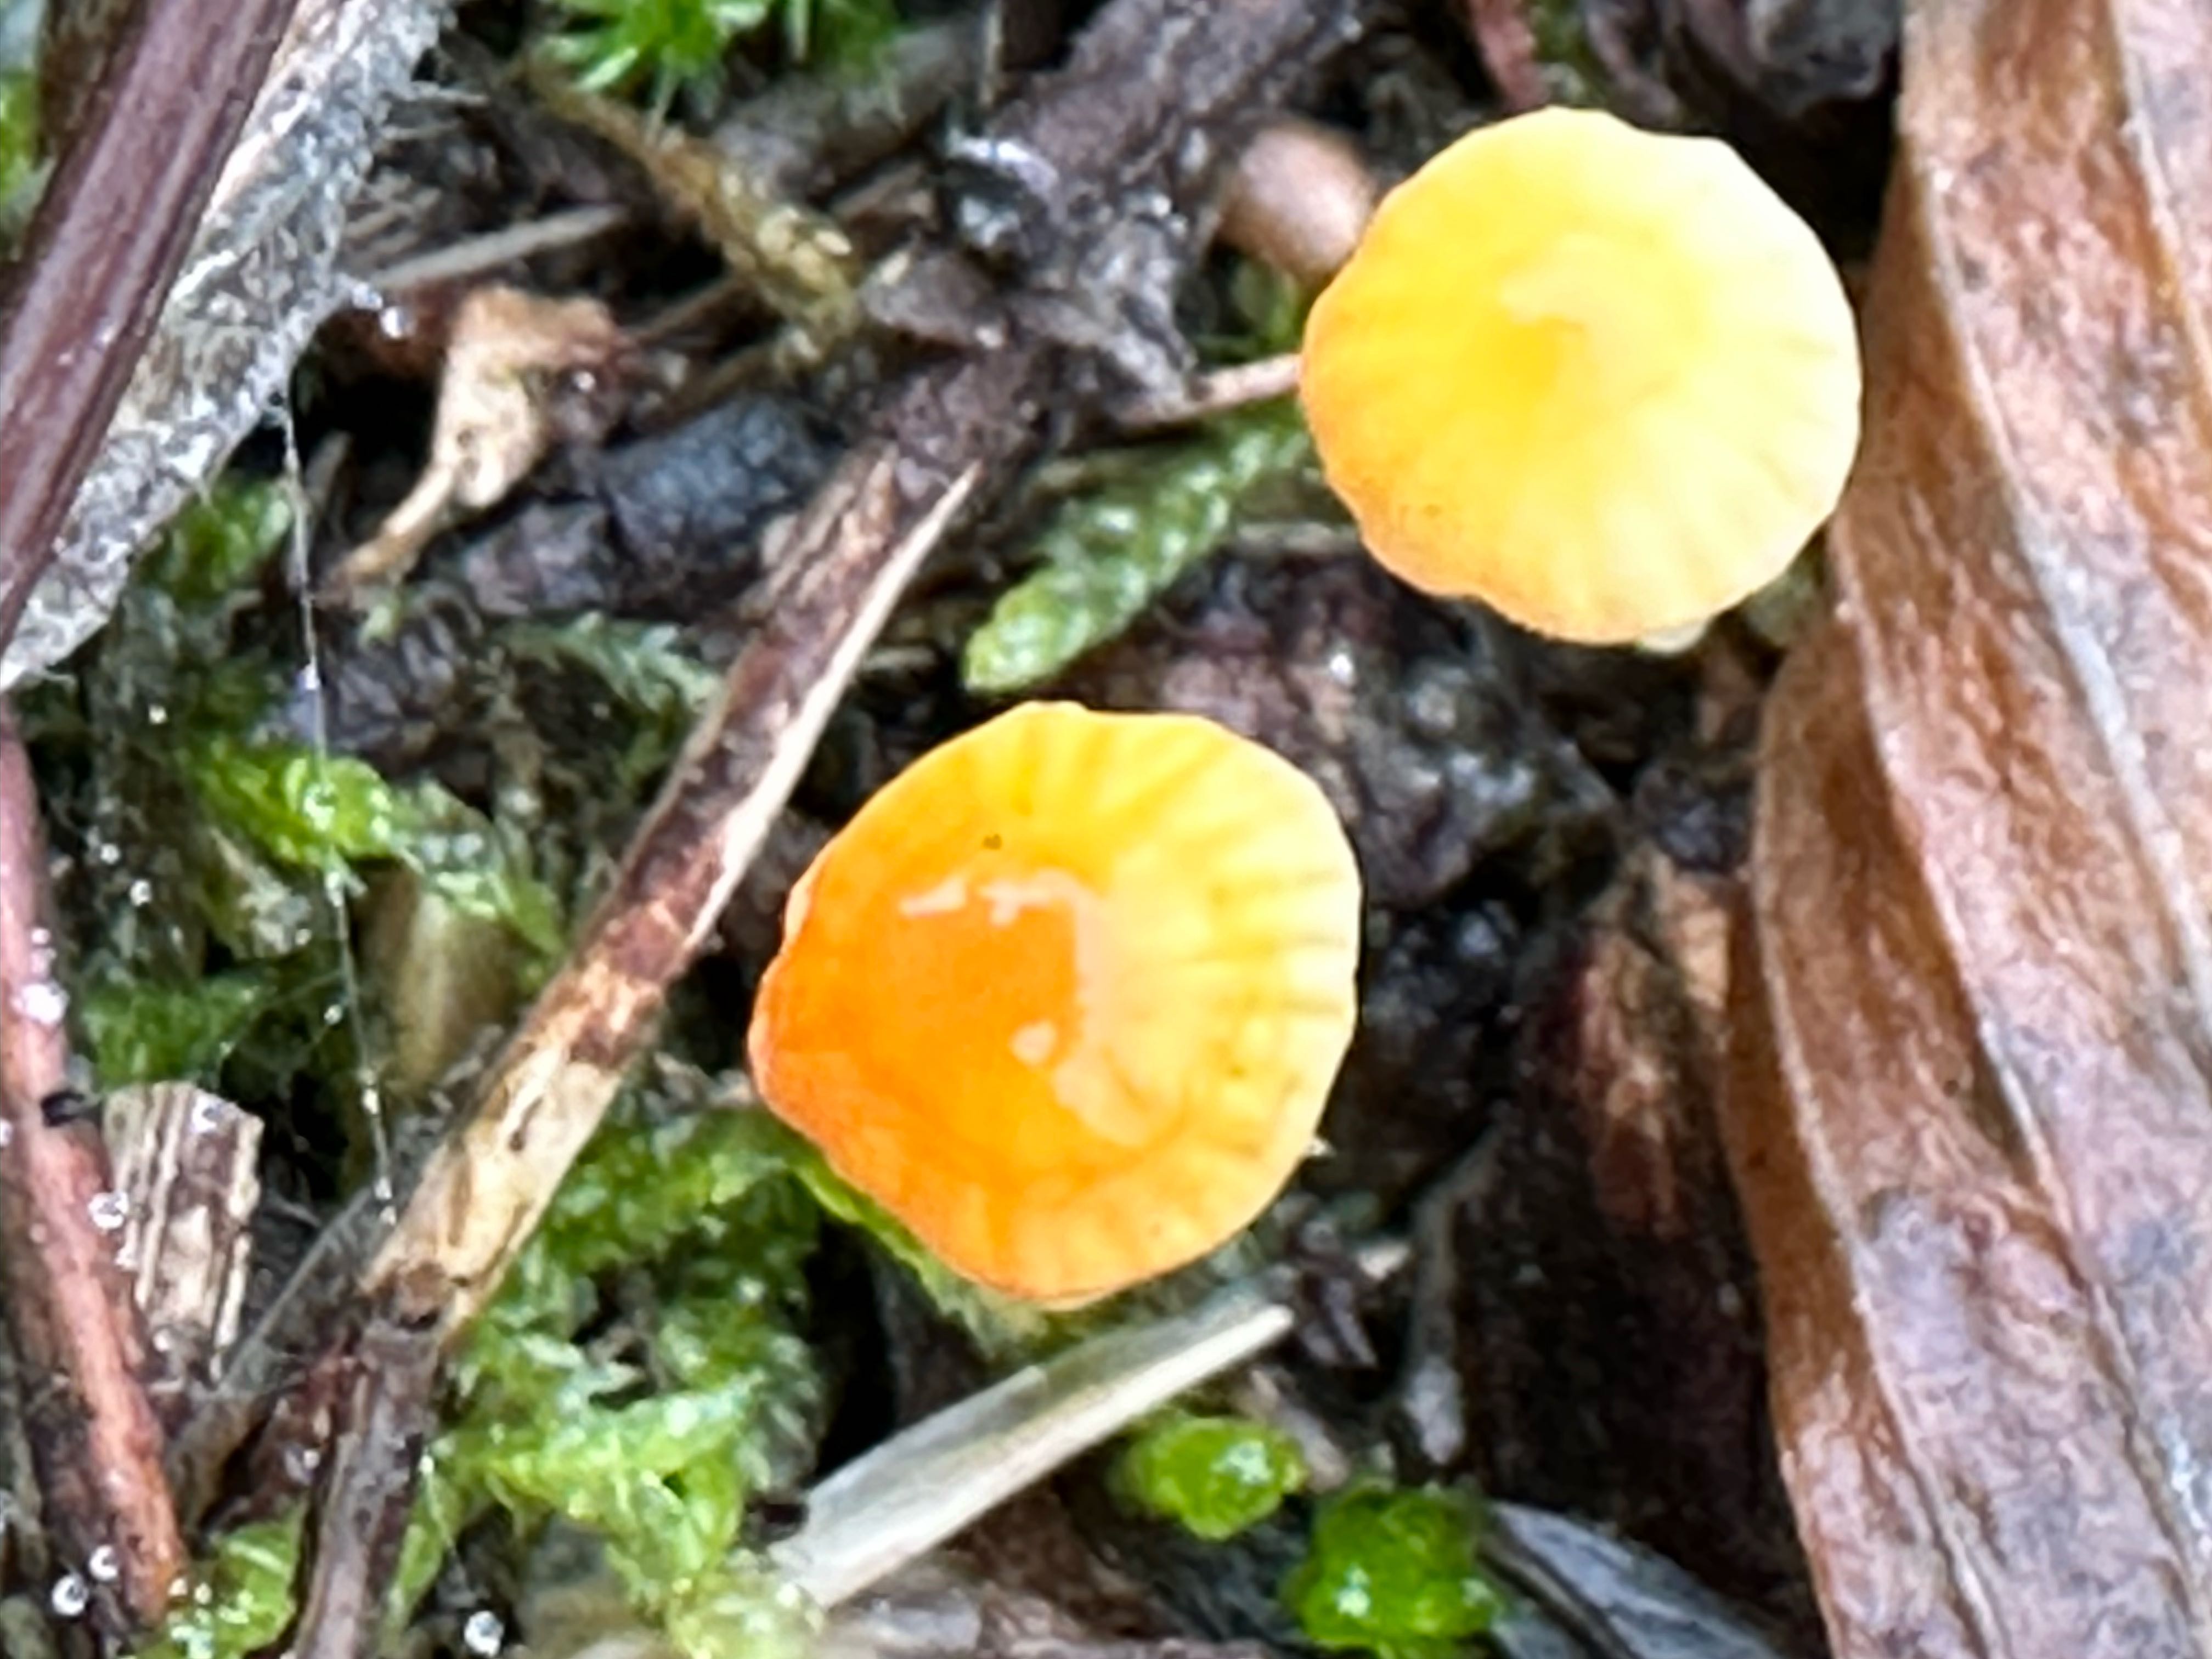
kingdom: Fungi
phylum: Basidiomycota
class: Agaricomycetes
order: Agaricales
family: Hymenogastraceae
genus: Galerina
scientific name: Galerina
